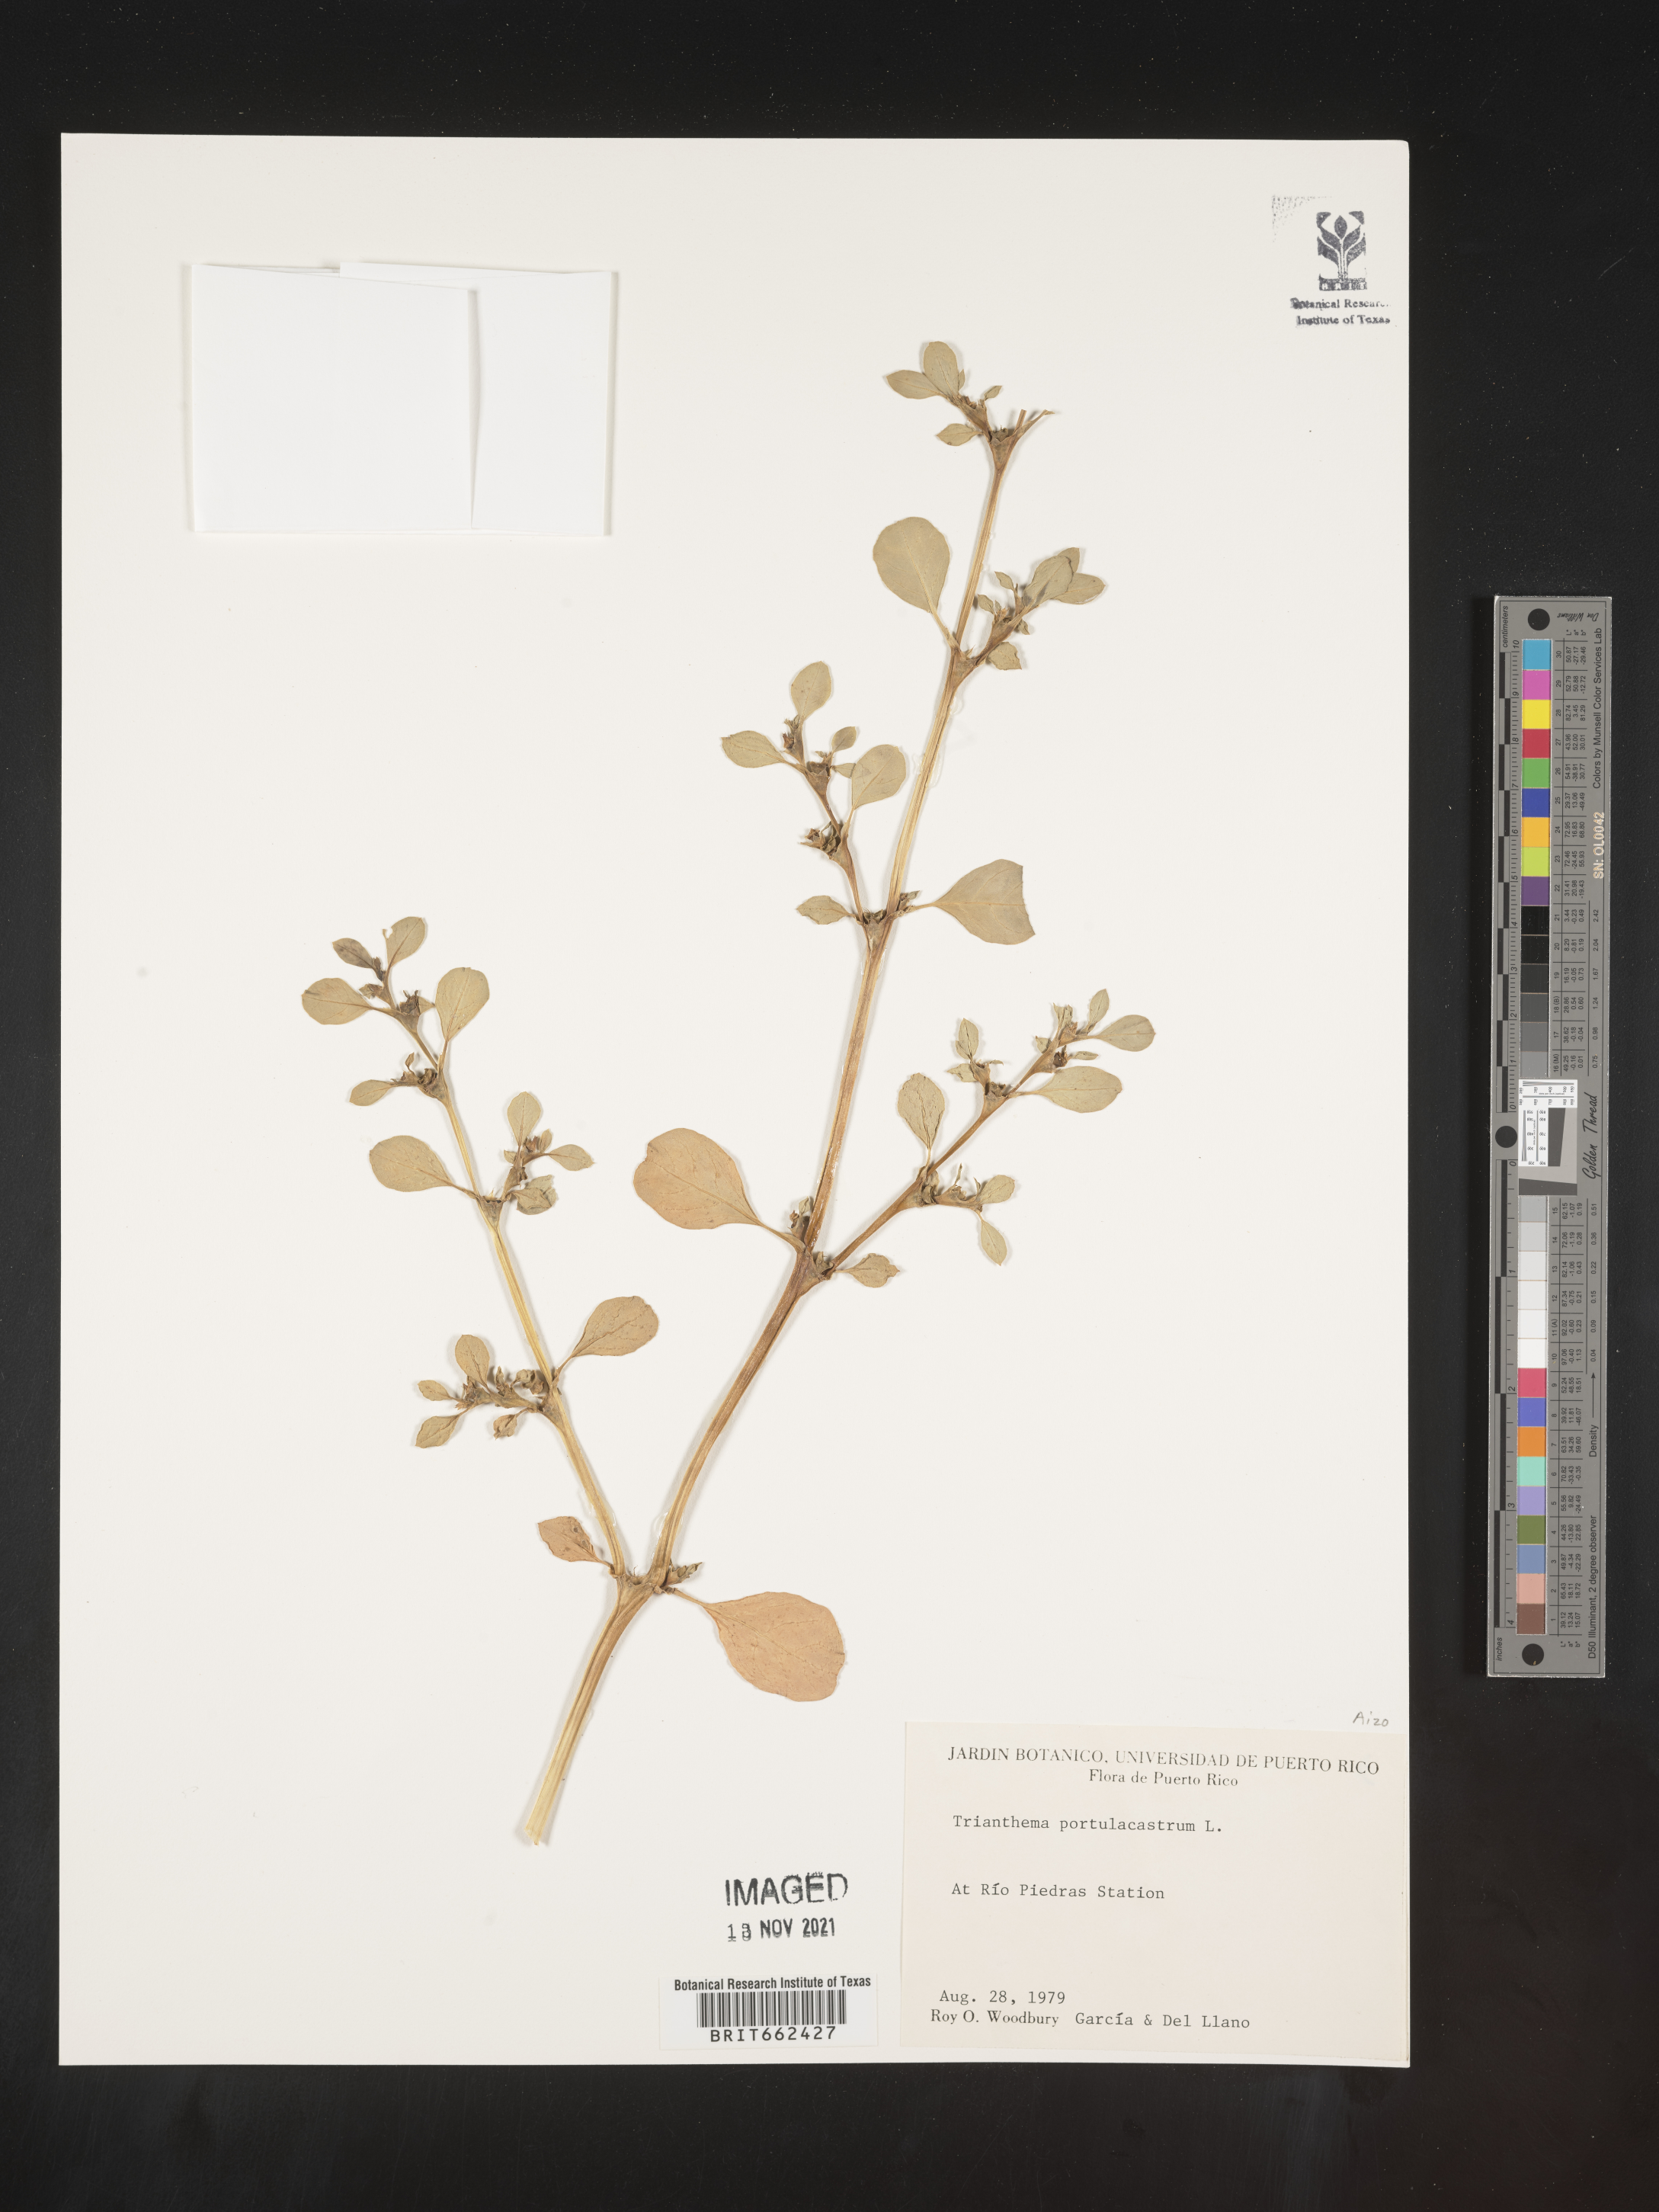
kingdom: Plantae
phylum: Tracheophyta
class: Magnoliopsida
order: Caryophyllales
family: Aizoaceae
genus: Trianthema
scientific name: Trianthema
